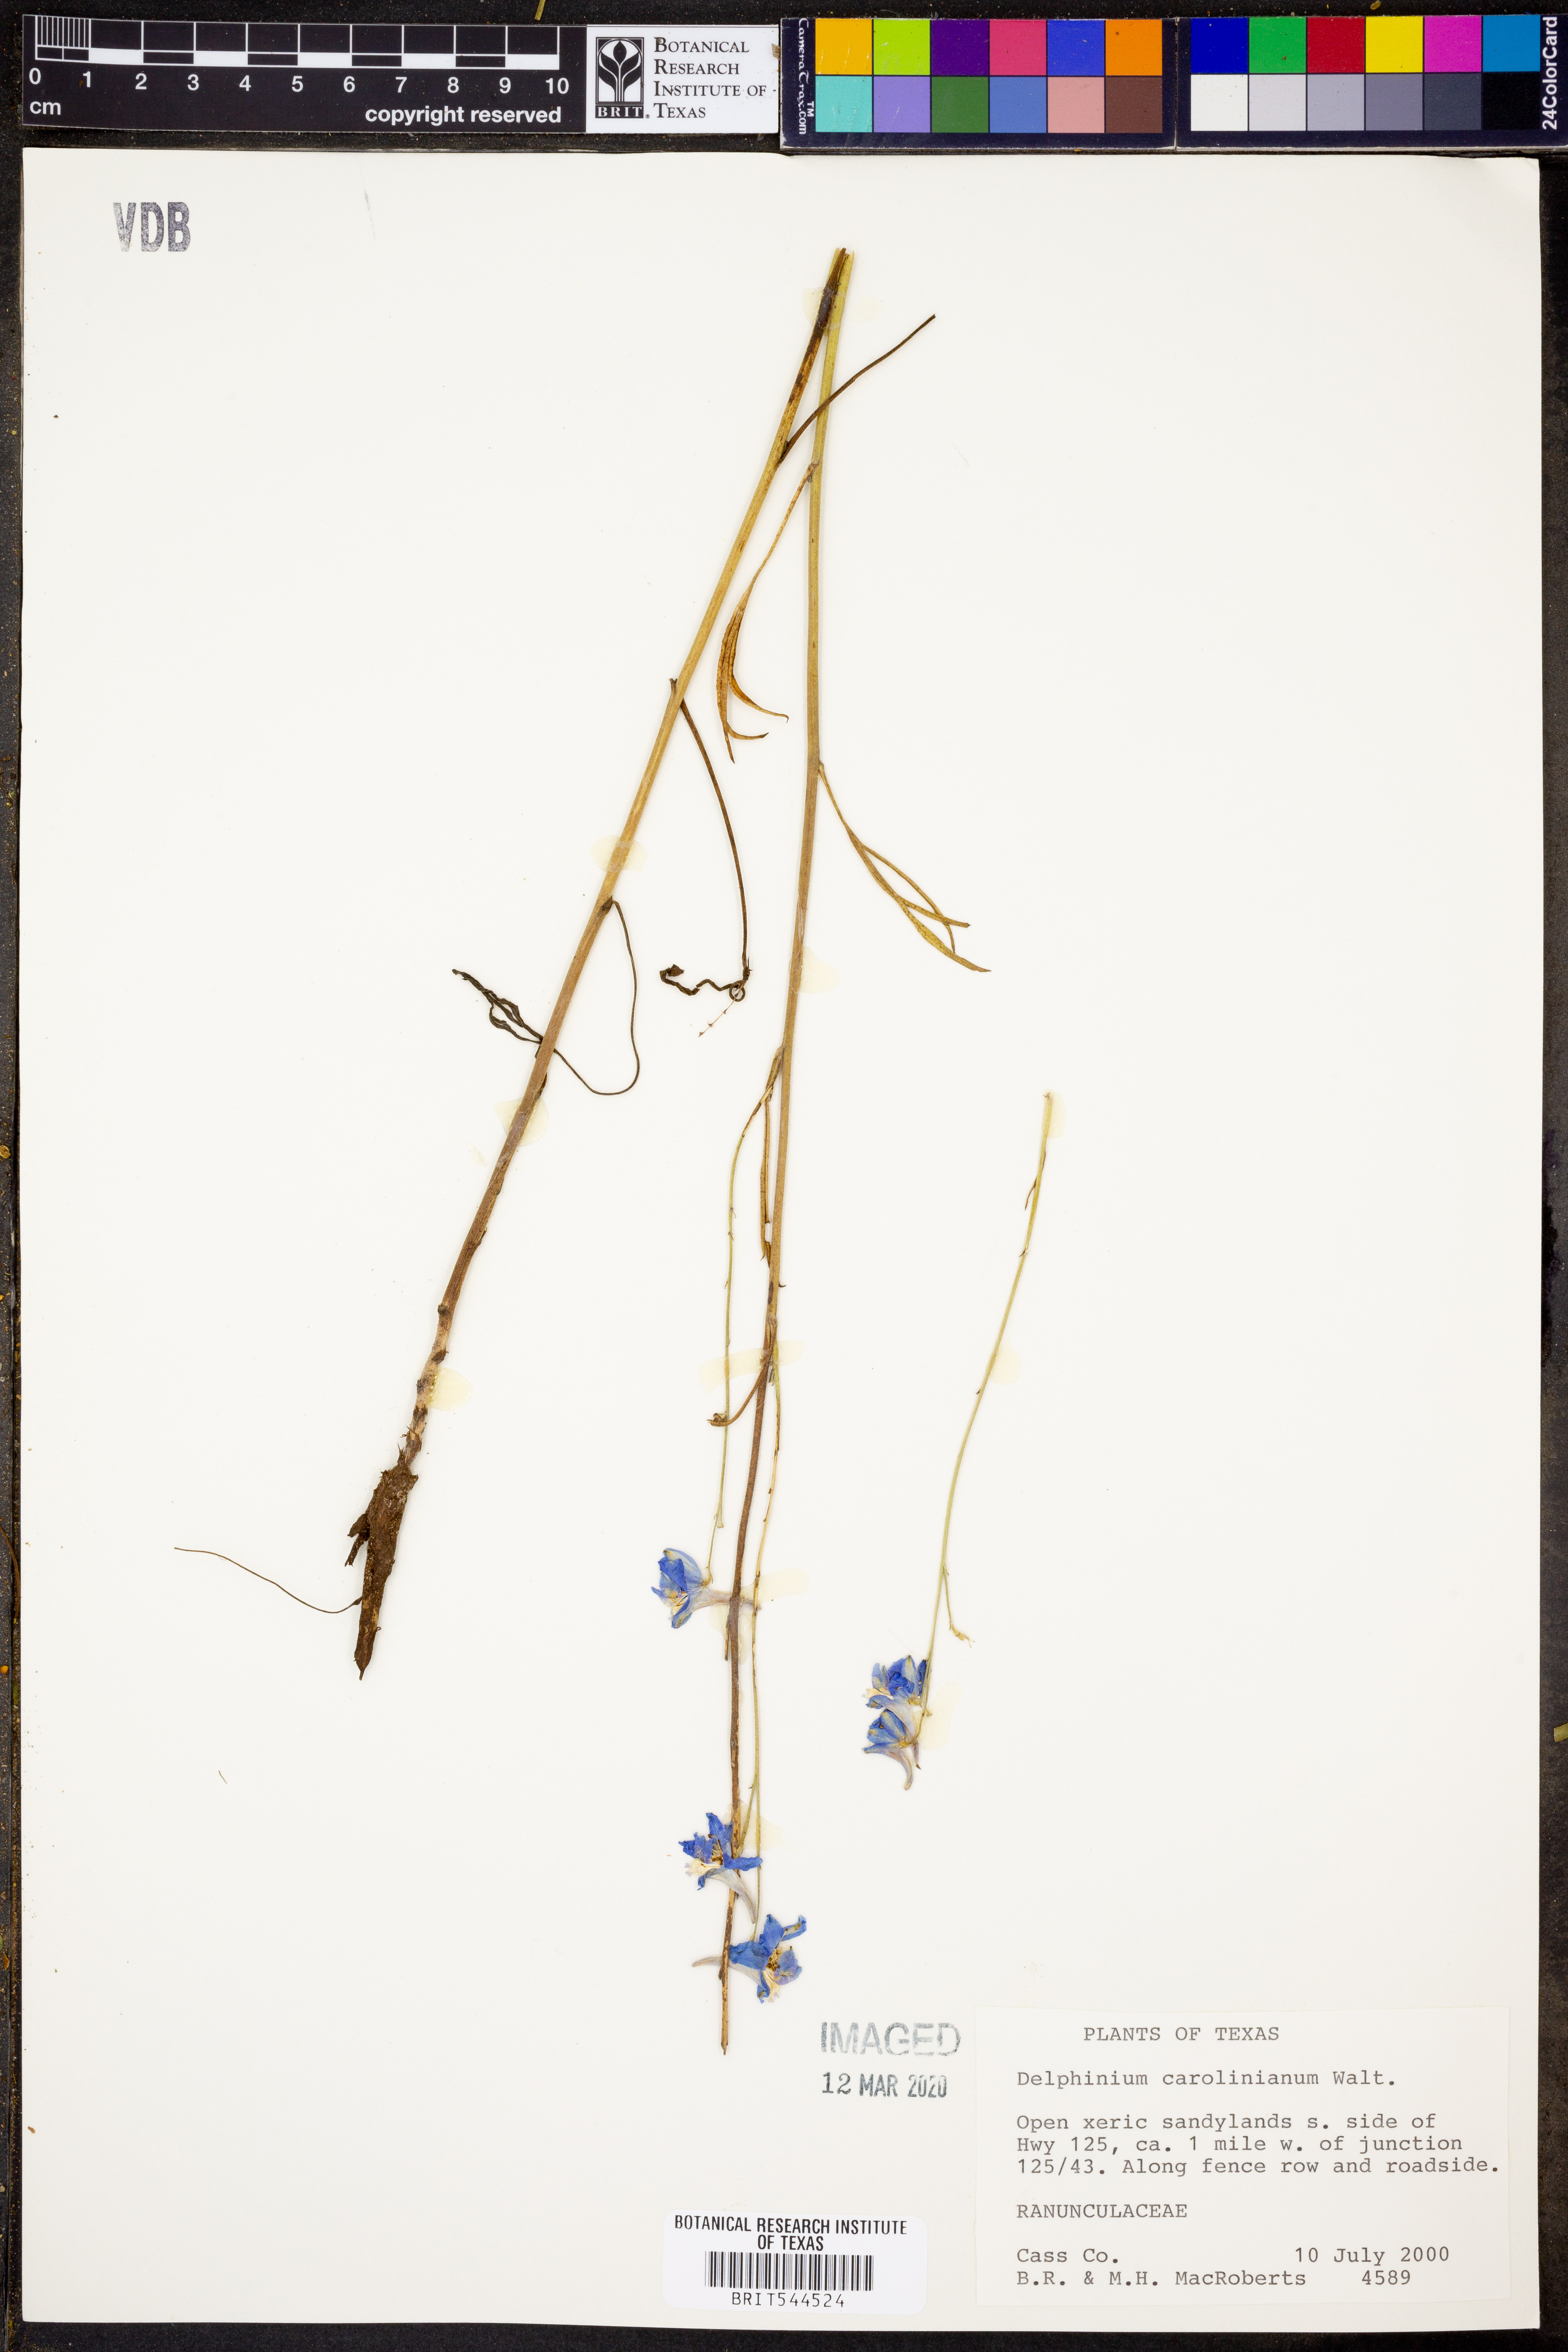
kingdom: Plantae
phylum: Tracheophyta
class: Magnoliopsida
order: Ranunculales
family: Ranunculaceae
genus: Delphinium
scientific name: Delphinium carolinianum
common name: Carolina larkspur
